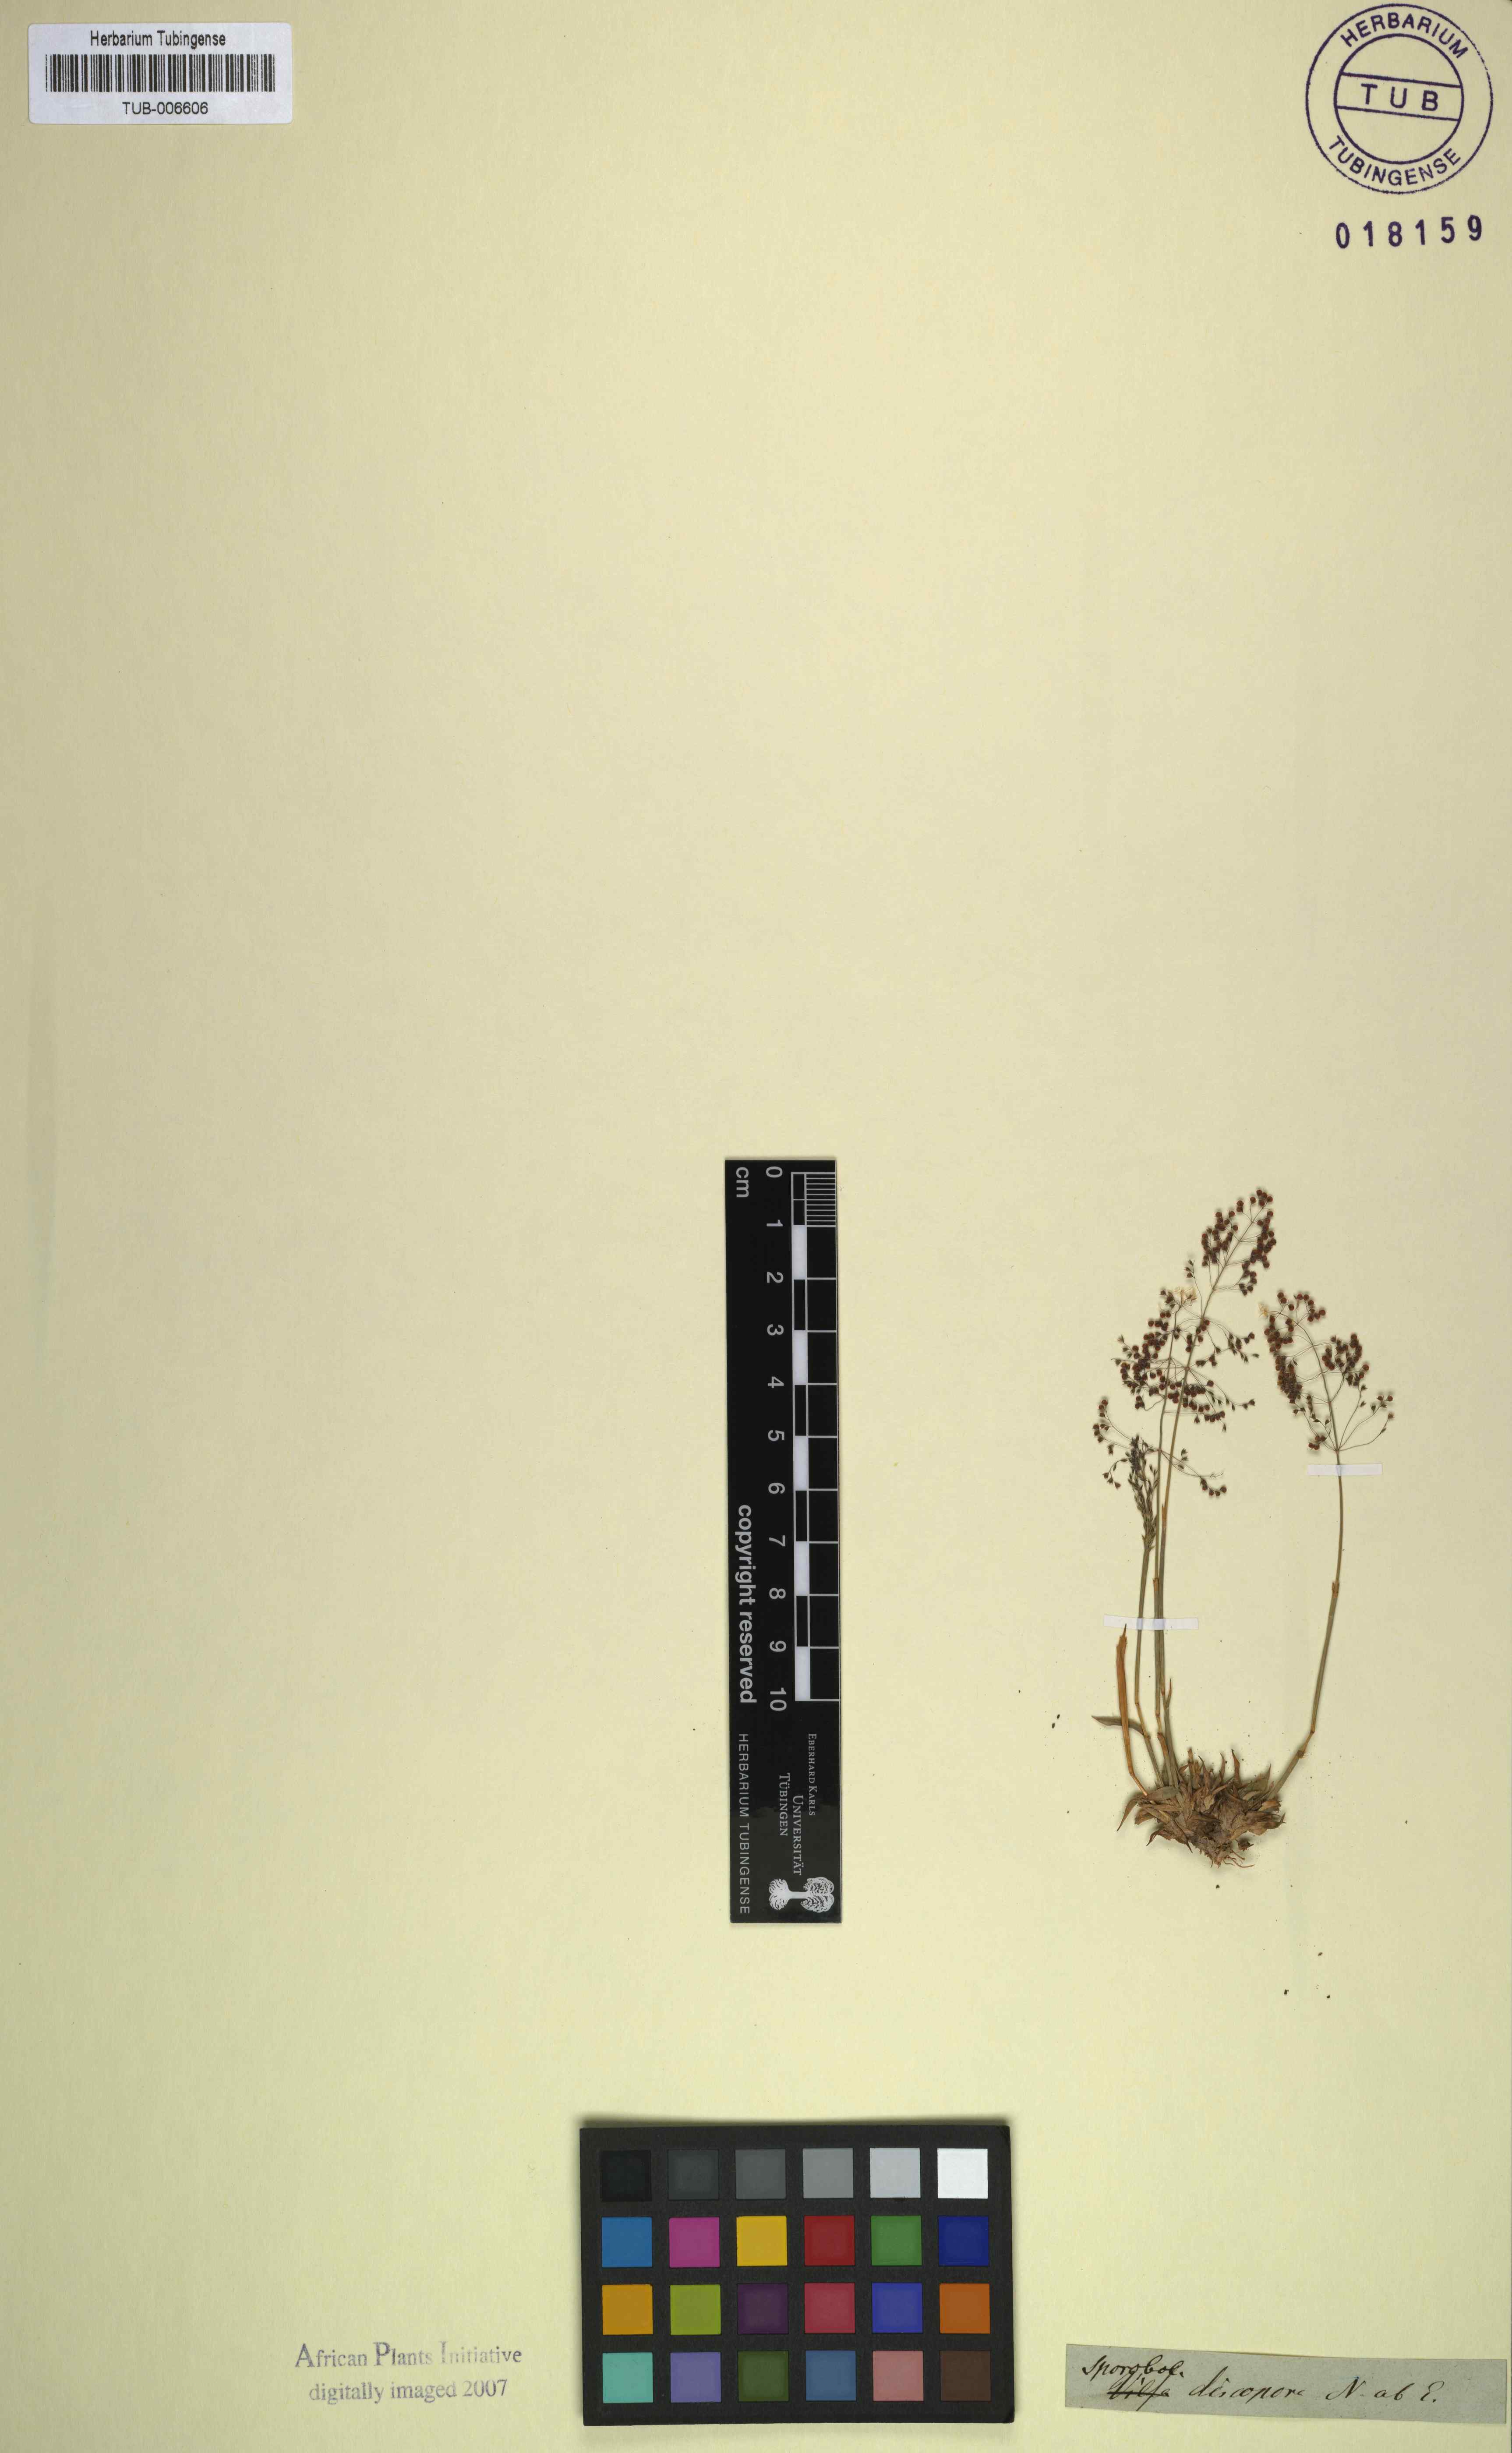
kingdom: Plantae
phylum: Tracheophyta
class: Liliopsida
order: Poales
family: Poaceae
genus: Sporobolus
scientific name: Sporobolus discosporus
